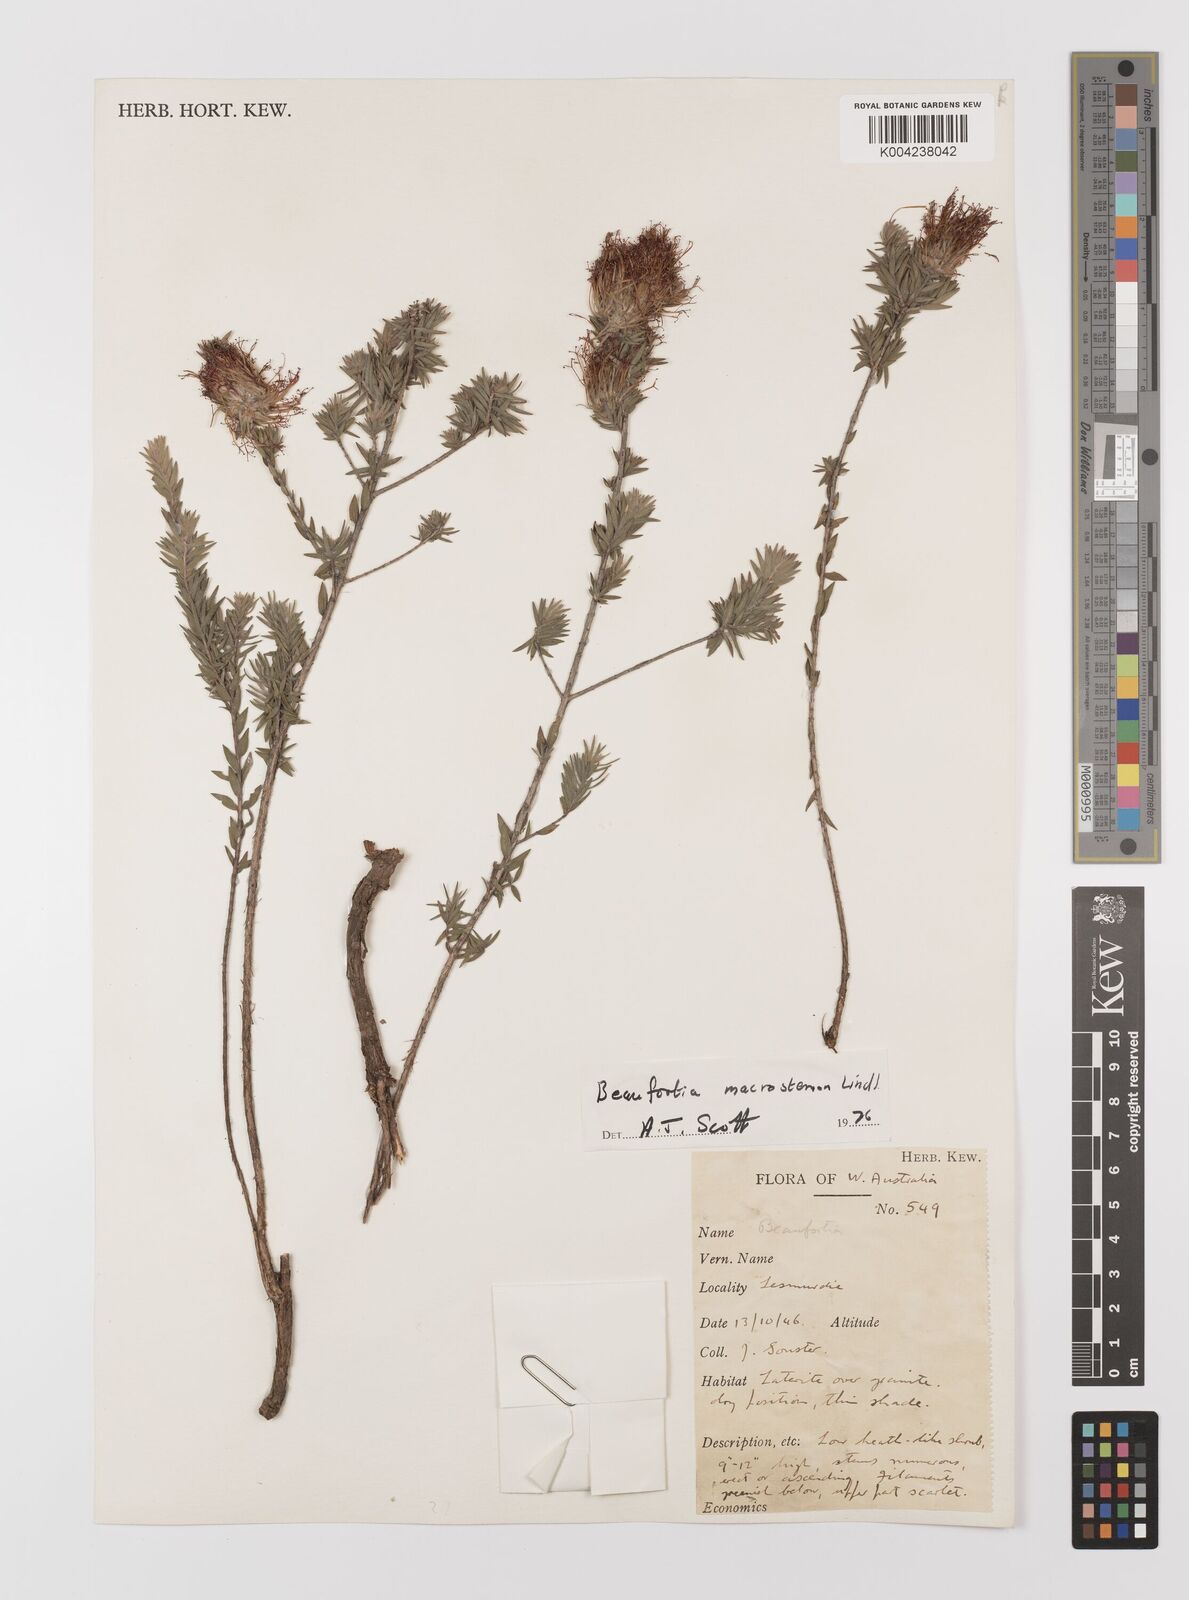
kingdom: Plantae
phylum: Tracheophyta
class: Magnoliopsida
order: Myrtales
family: Myrtaceae
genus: Melaleuca
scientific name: Melaleuca macrostemon
